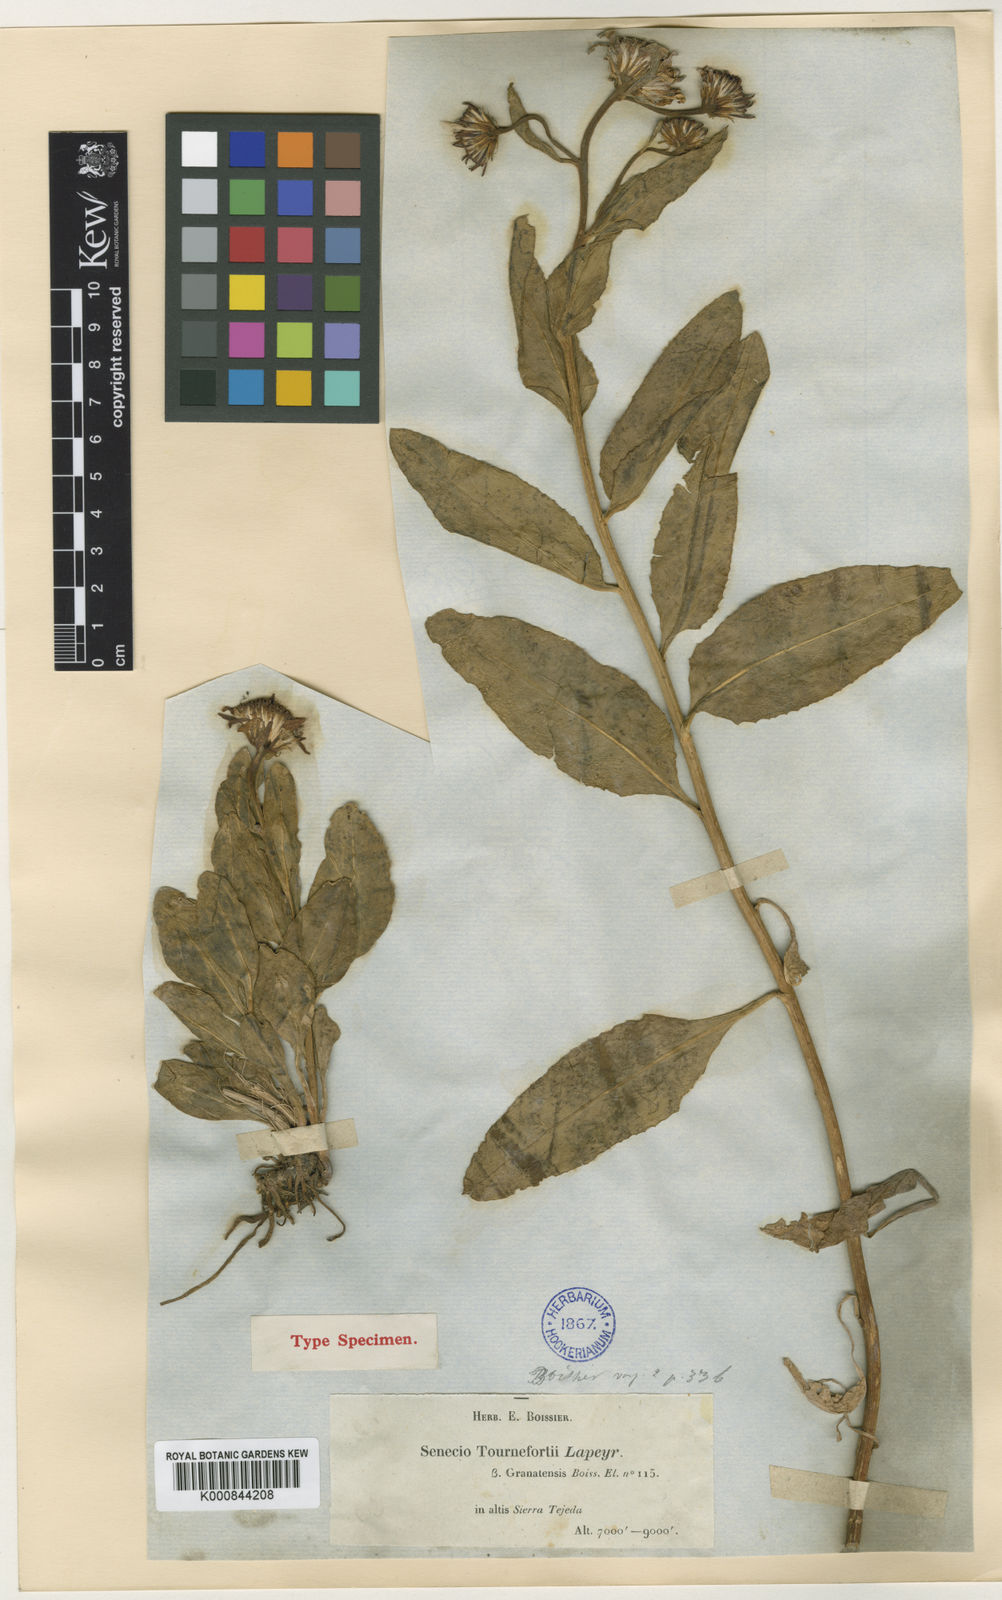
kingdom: Plantae
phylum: Tracheophyta
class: Magnoliopsida
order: Asterales
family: Asteraceae
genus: Tephroseris
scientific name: Tephroseris helenitis
